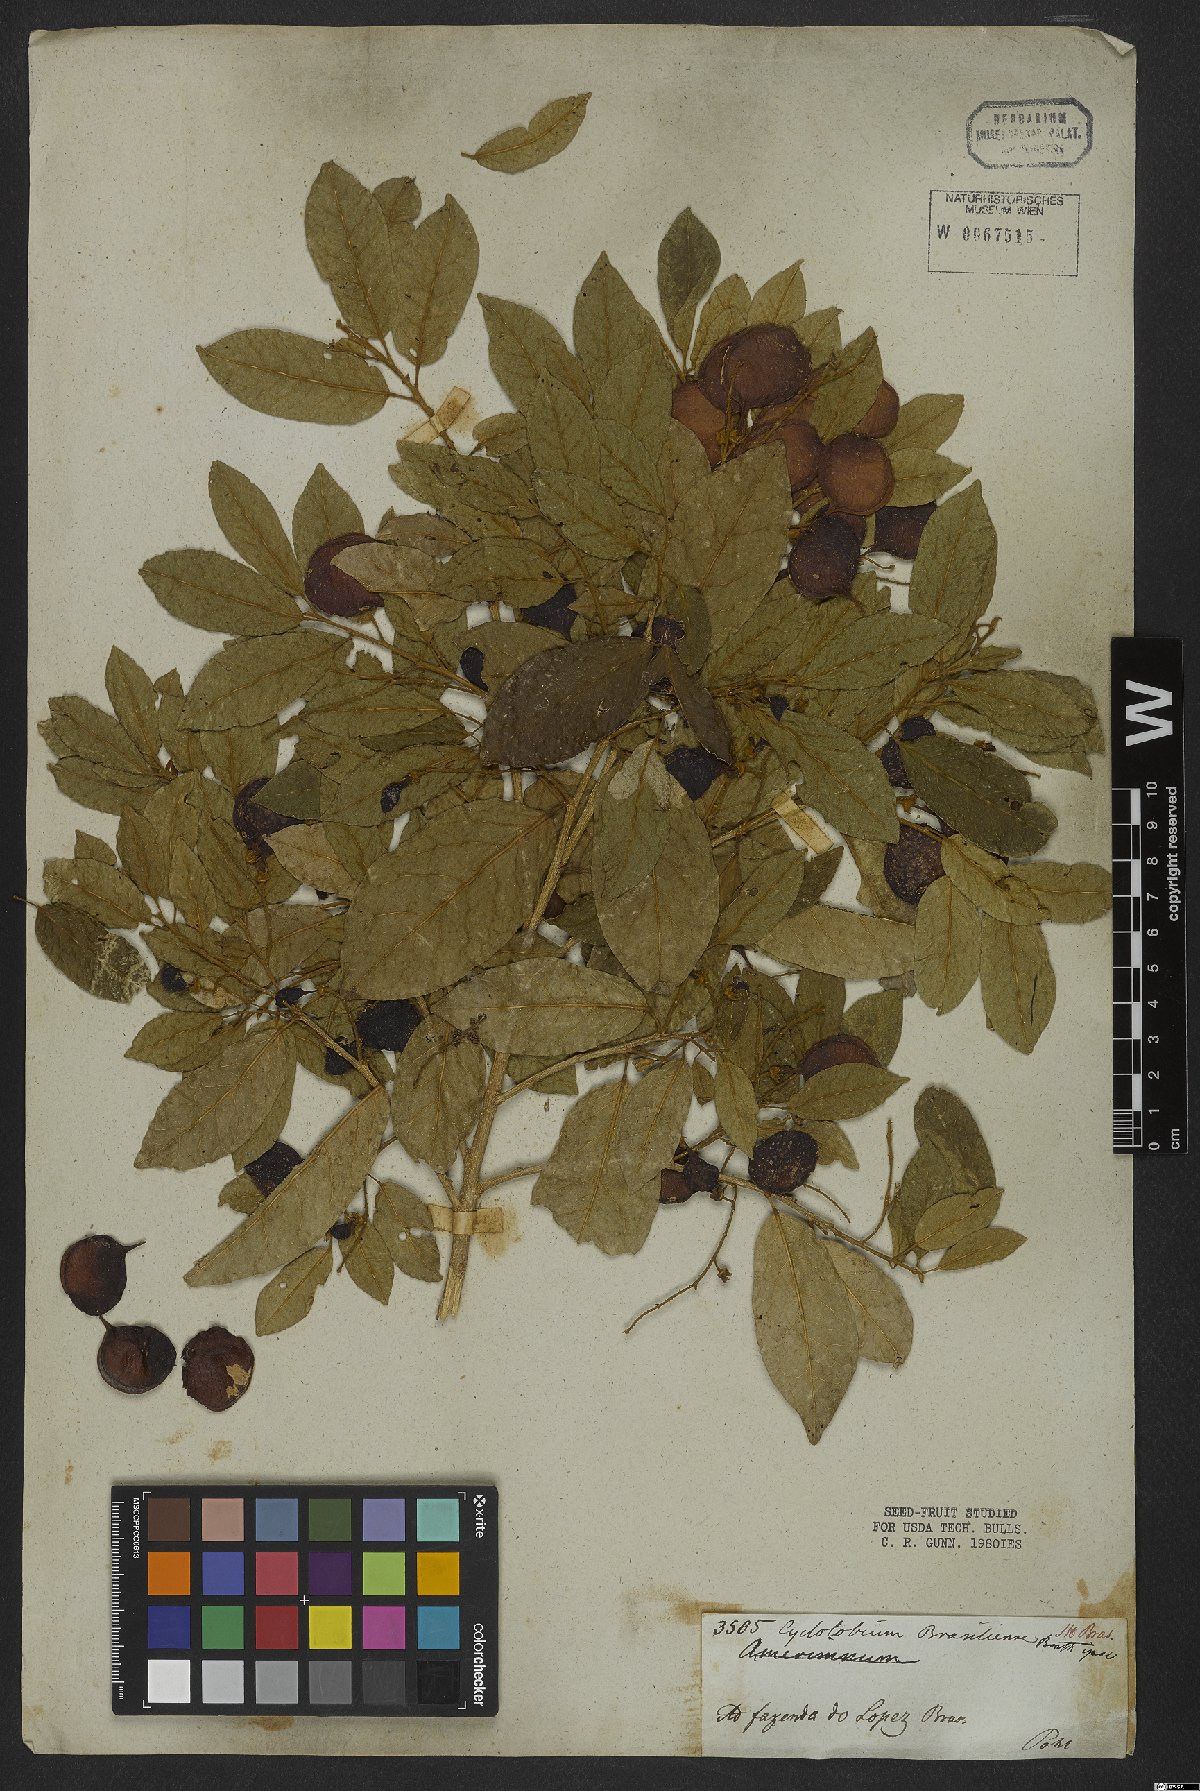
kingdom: Plantae
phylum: Tracheophyta
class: Magnoliopsida
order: Fabales
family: Fabaceae
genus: Cyclolobium
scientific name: Cyclolobium brasiliense
